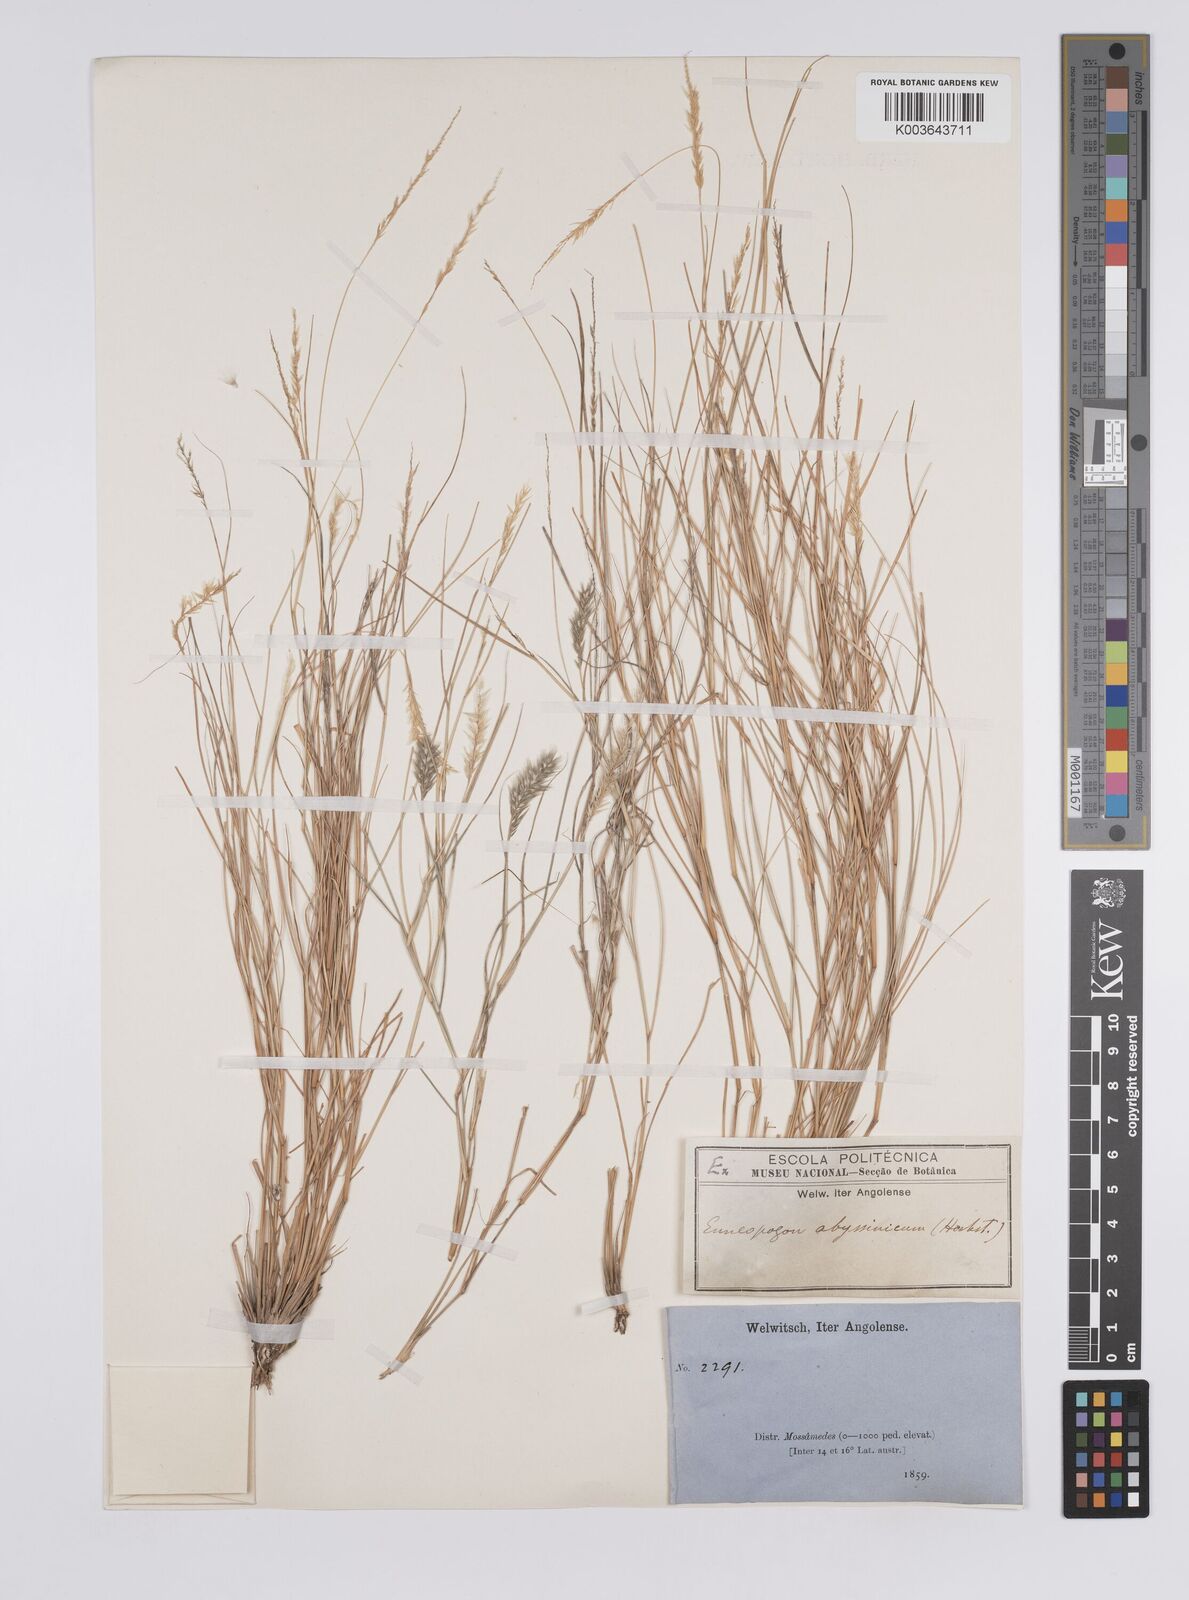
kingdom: Plantae
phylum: Tracheophyta
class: Liliopsida
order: Poales
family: Poaceae
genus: Enneapogon
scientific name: Enneapogon cenchroides
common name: Soft feather pappusgrass
